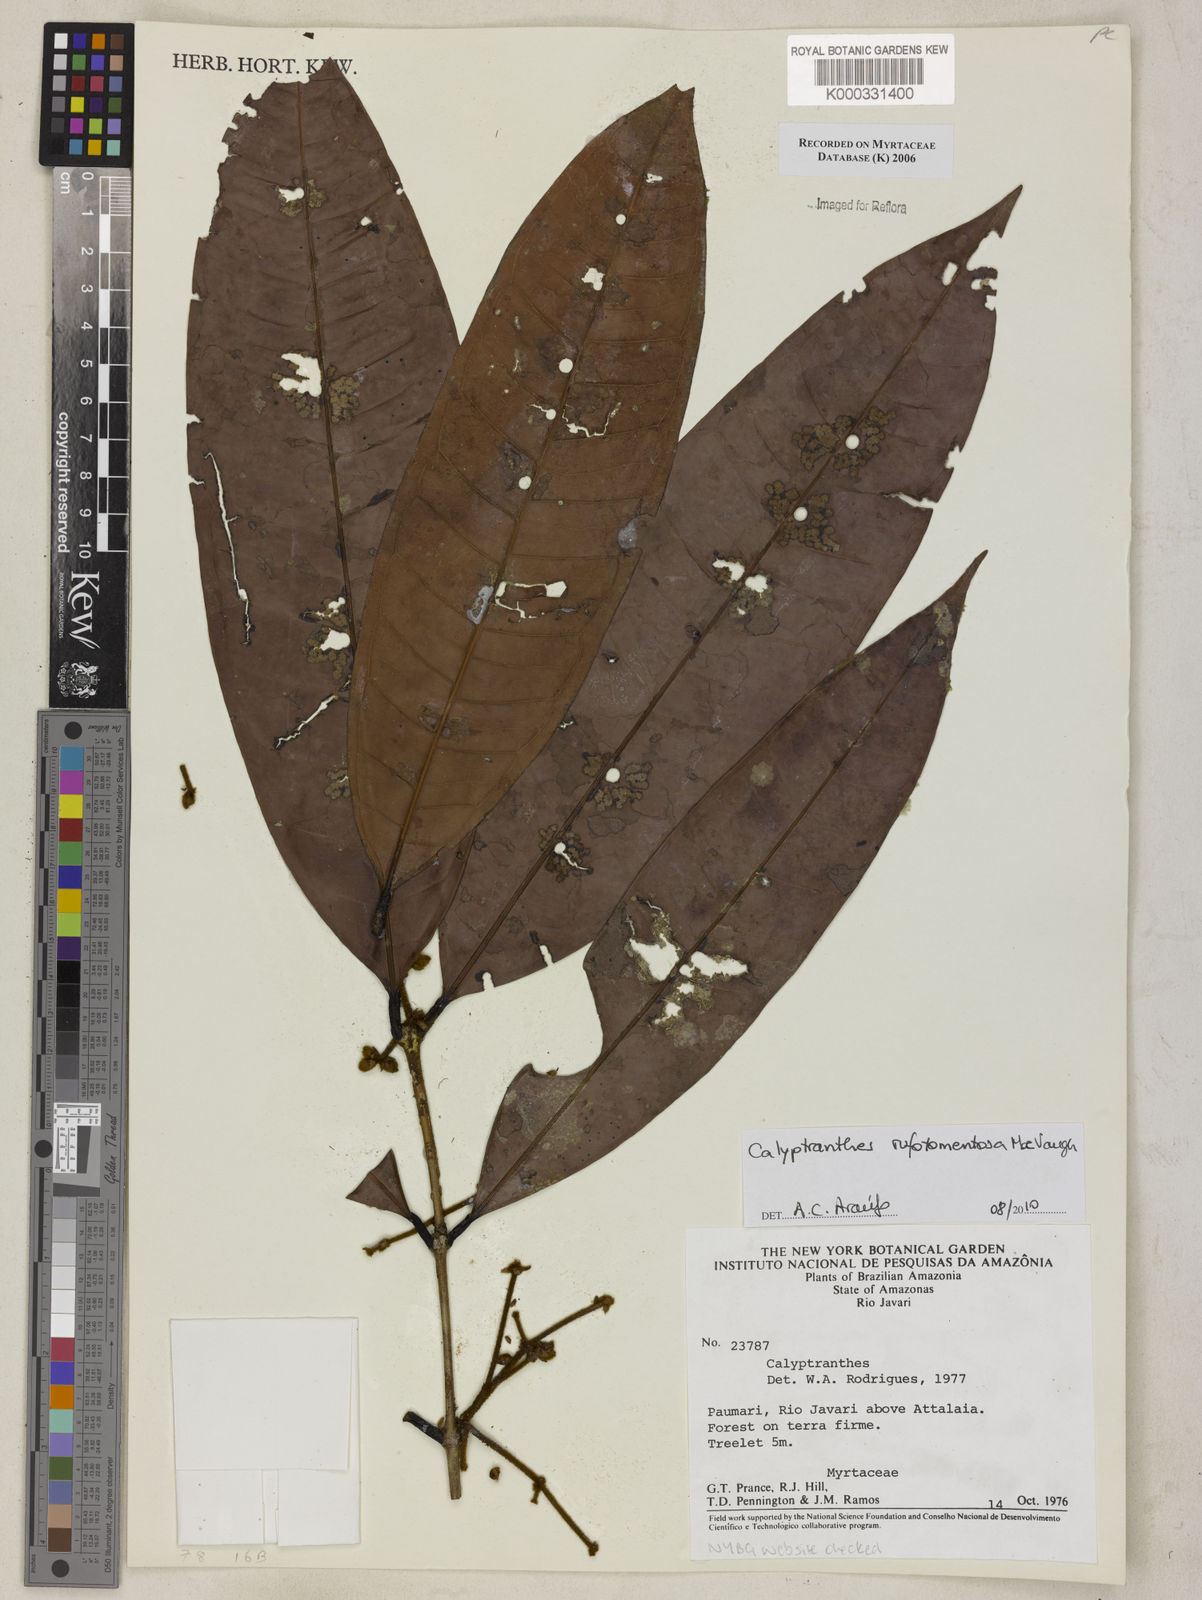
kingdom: Plantae
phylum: Tracheophyta
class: Magnoliopsida
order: Myrtales
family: Myrtaceae
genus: Calyptranthes
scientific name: Calyptranthes
